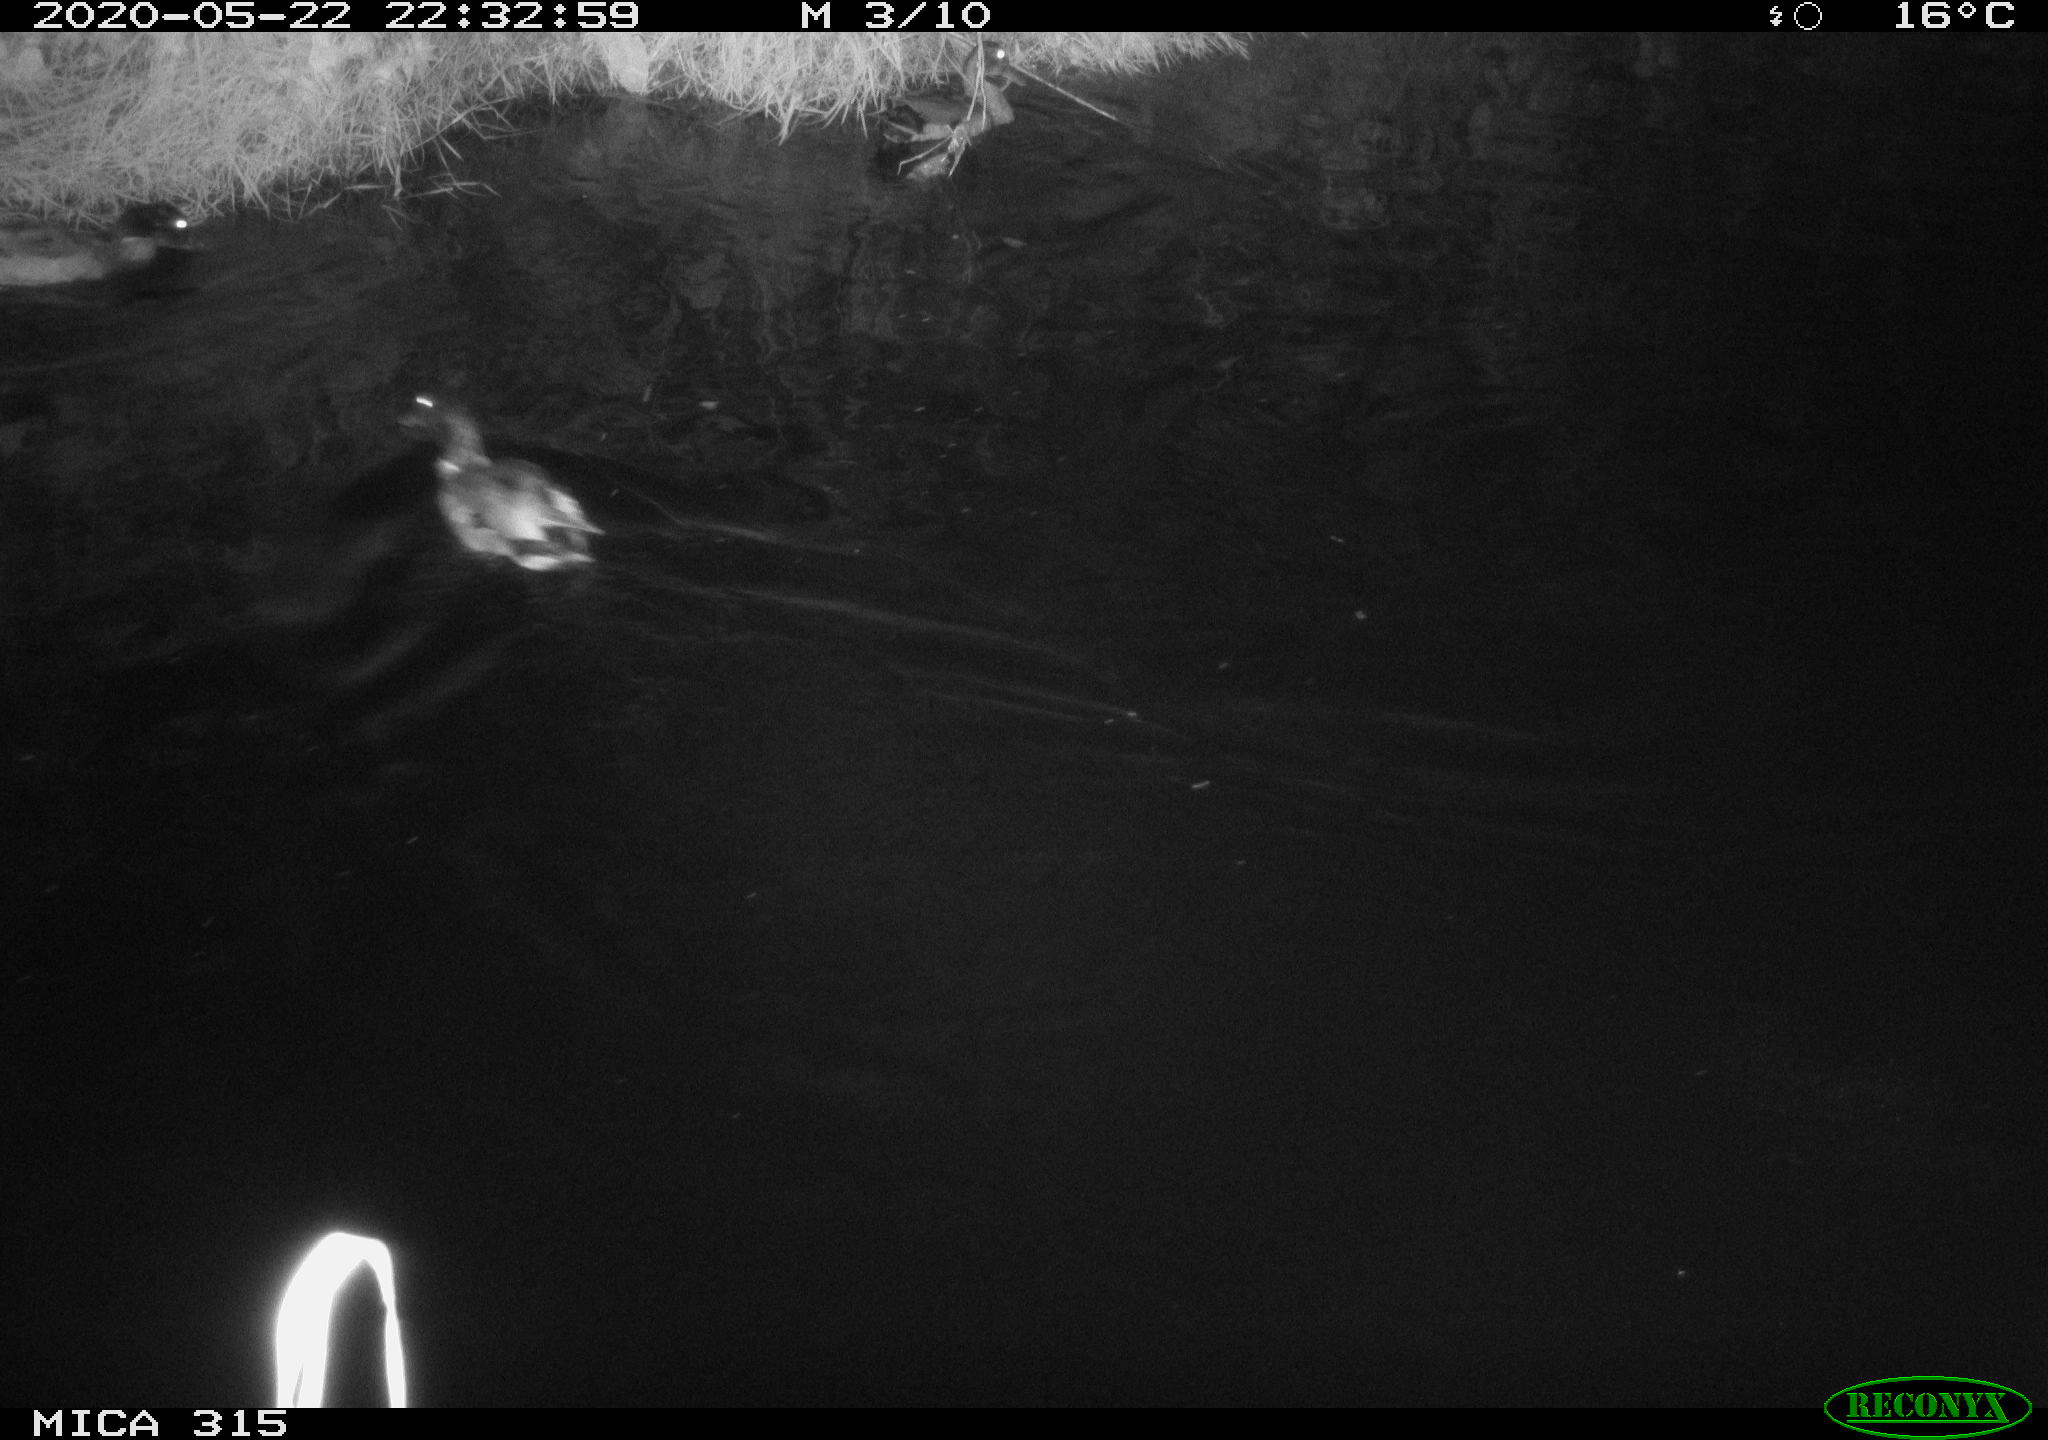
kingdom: Animalia
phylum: Chordata
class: Aves
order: Anseriformes
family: Anatidae
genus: Anas
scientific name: Anas platyrhynchos
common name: Mallard
